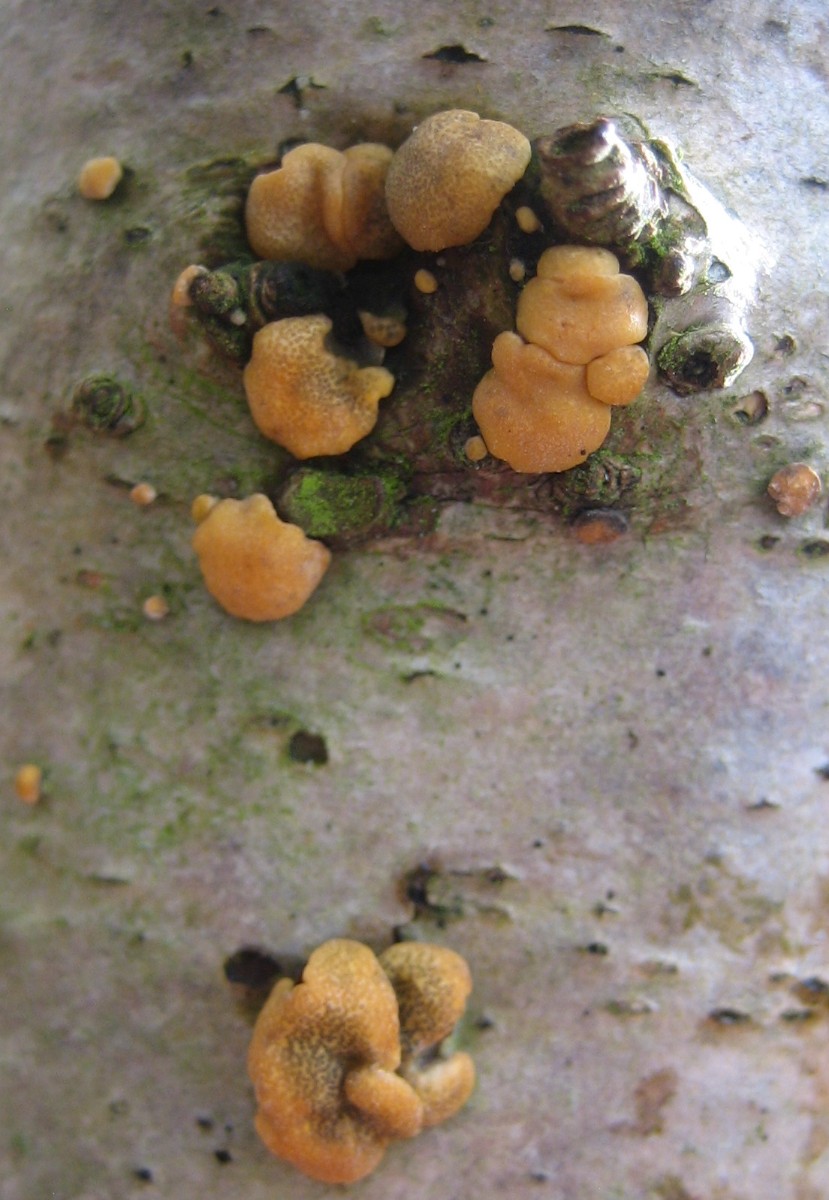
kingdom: Fungi
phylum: Ascomycota
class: Sordariomycetes
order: Hypocreales
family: Hypocreaceae
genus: Trichoderma
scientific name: Trichoderma aureoviride
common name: æggegul kødkerne
